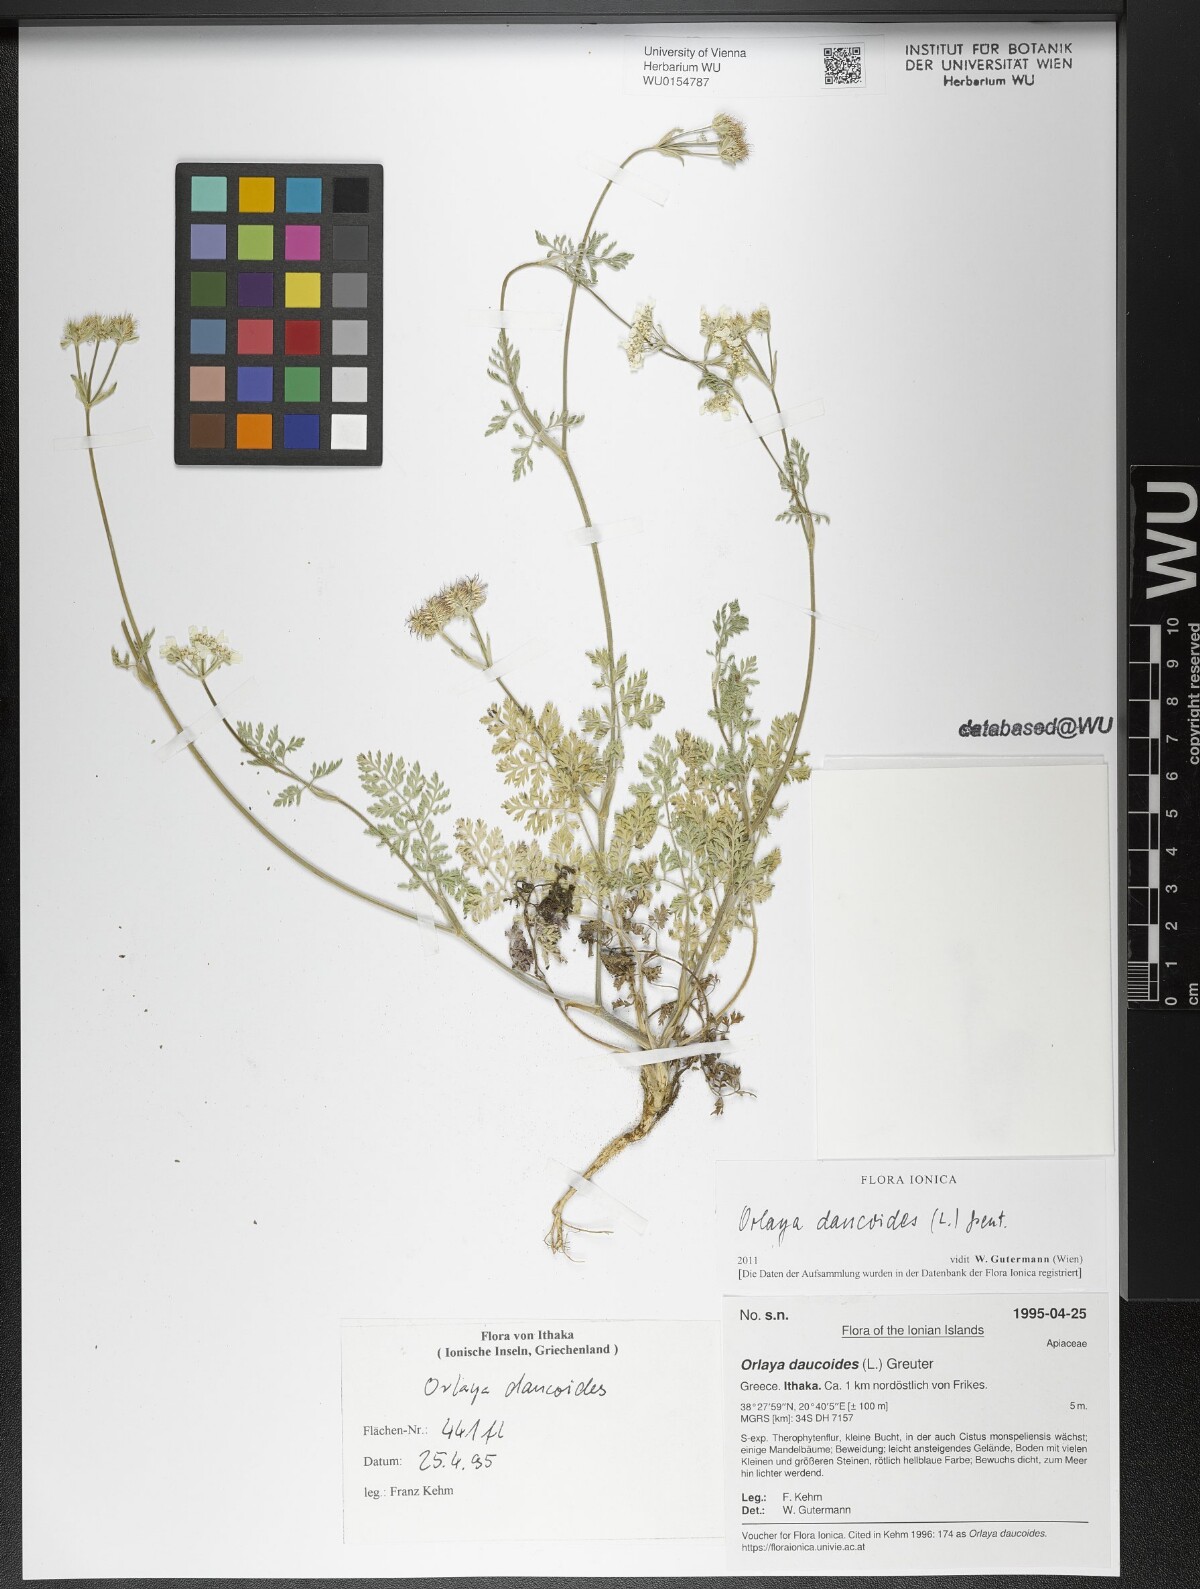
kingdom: Plantae
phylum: Tracheophyta
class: Magnoliopsida
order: Apiales
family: Apiaceae
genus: Orlaya
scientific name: Orlaya daucoides
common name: Flat-fruit orlaya
